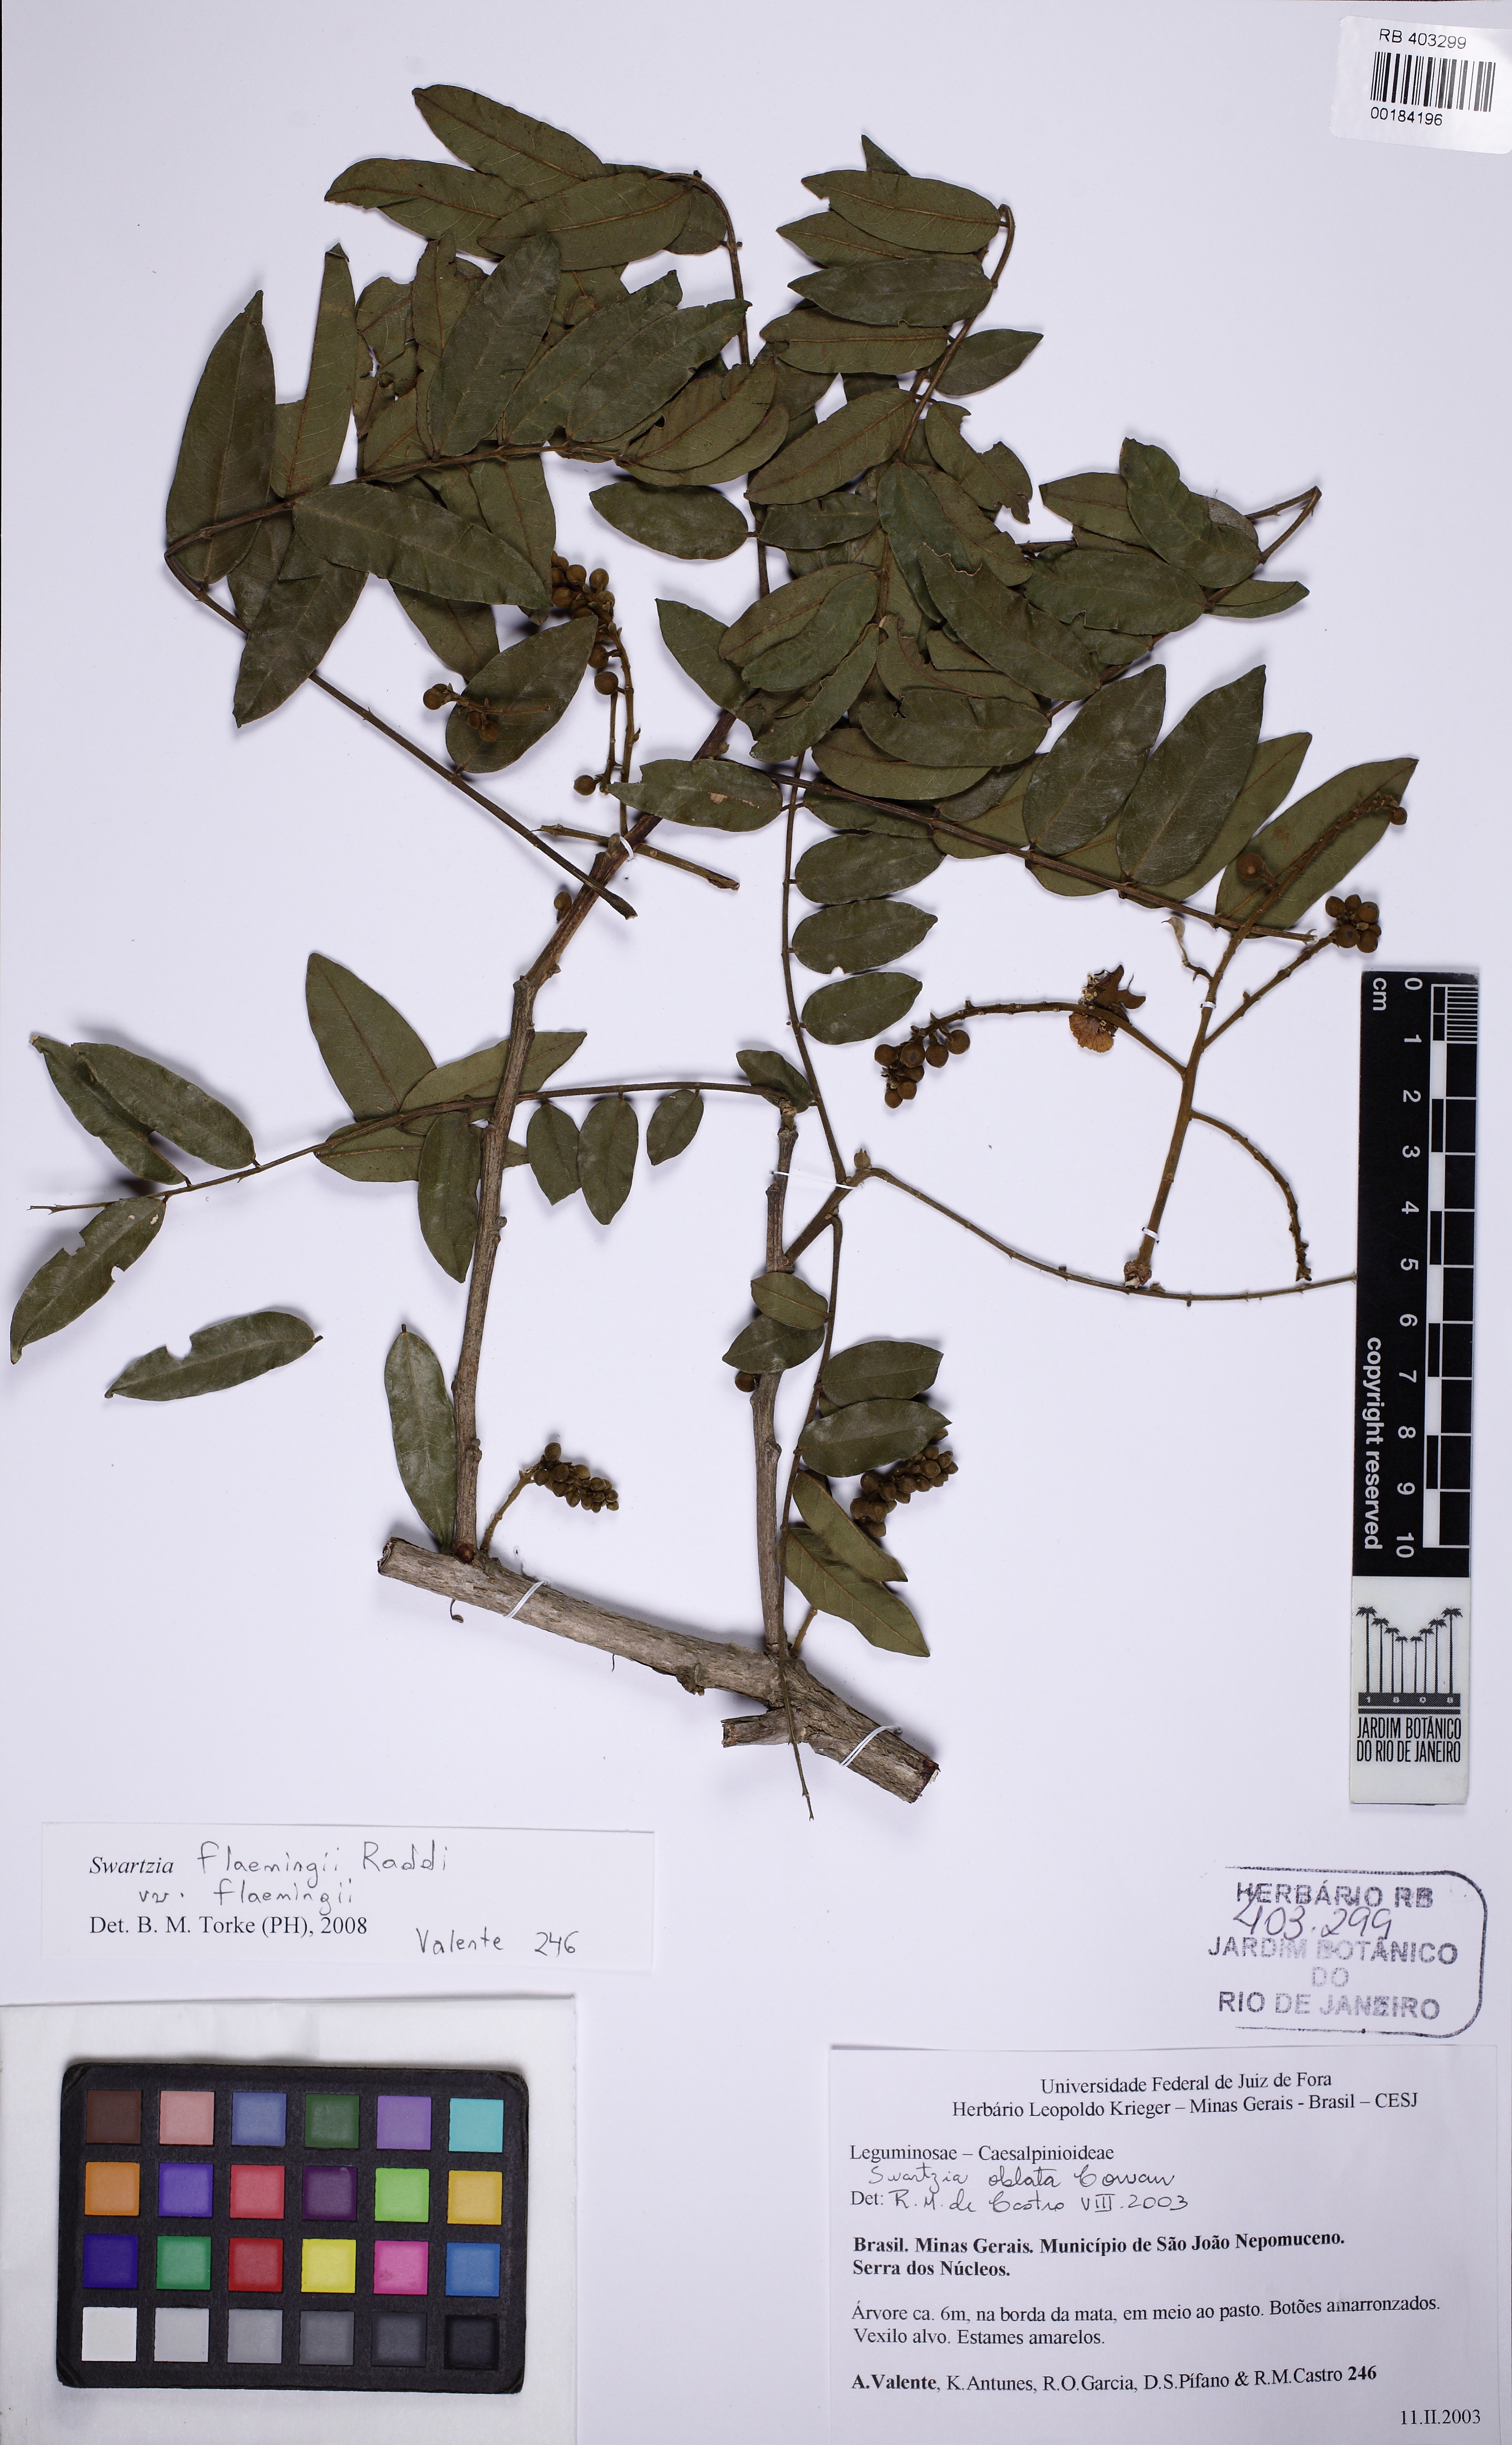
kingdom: Plantae
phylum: Tracheophyta
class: Magnoliopsida
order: Fabales
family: Fabaceae
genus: Swartzia
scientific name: Swartzia flaemingii
